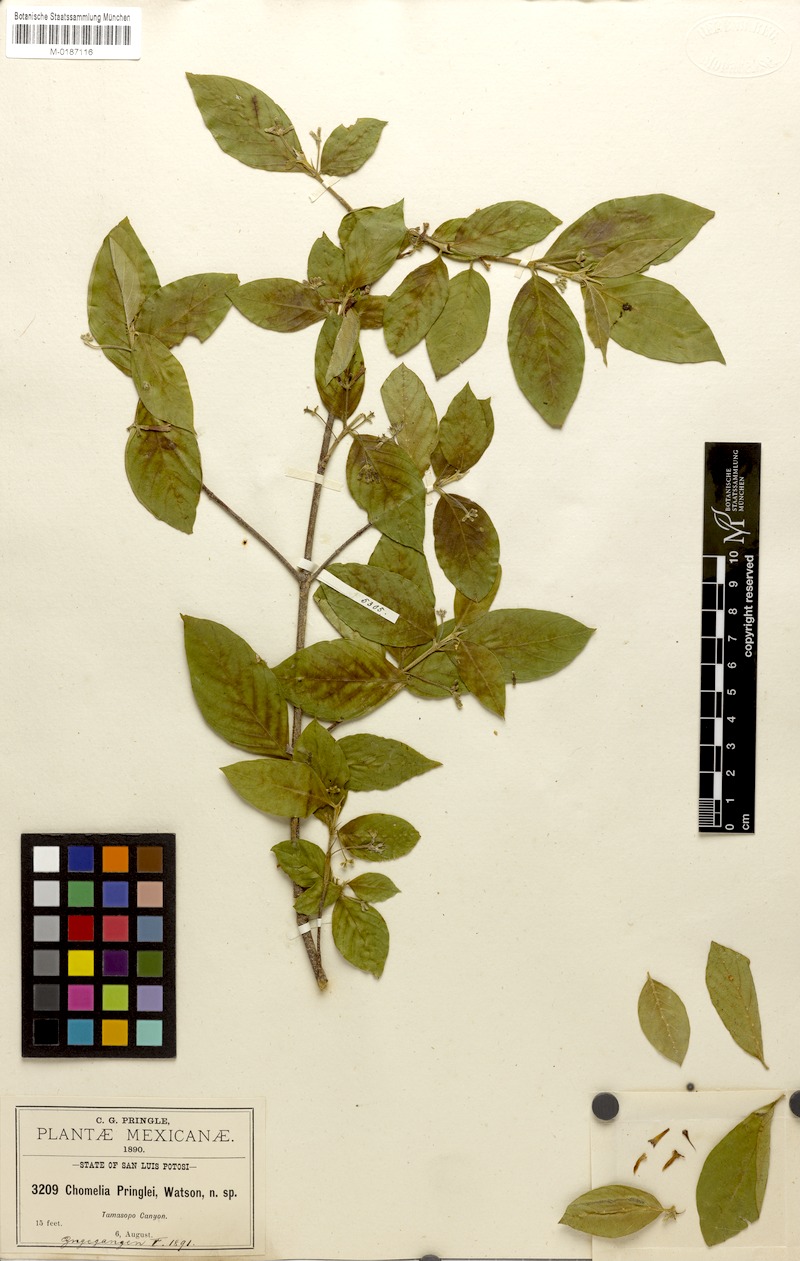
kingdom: Plantae
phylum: Tracheophyta
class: Magnoliopsida
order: Gentianales
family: Rubiaceae
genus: Chomelia
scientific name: Chomelia pringlei
